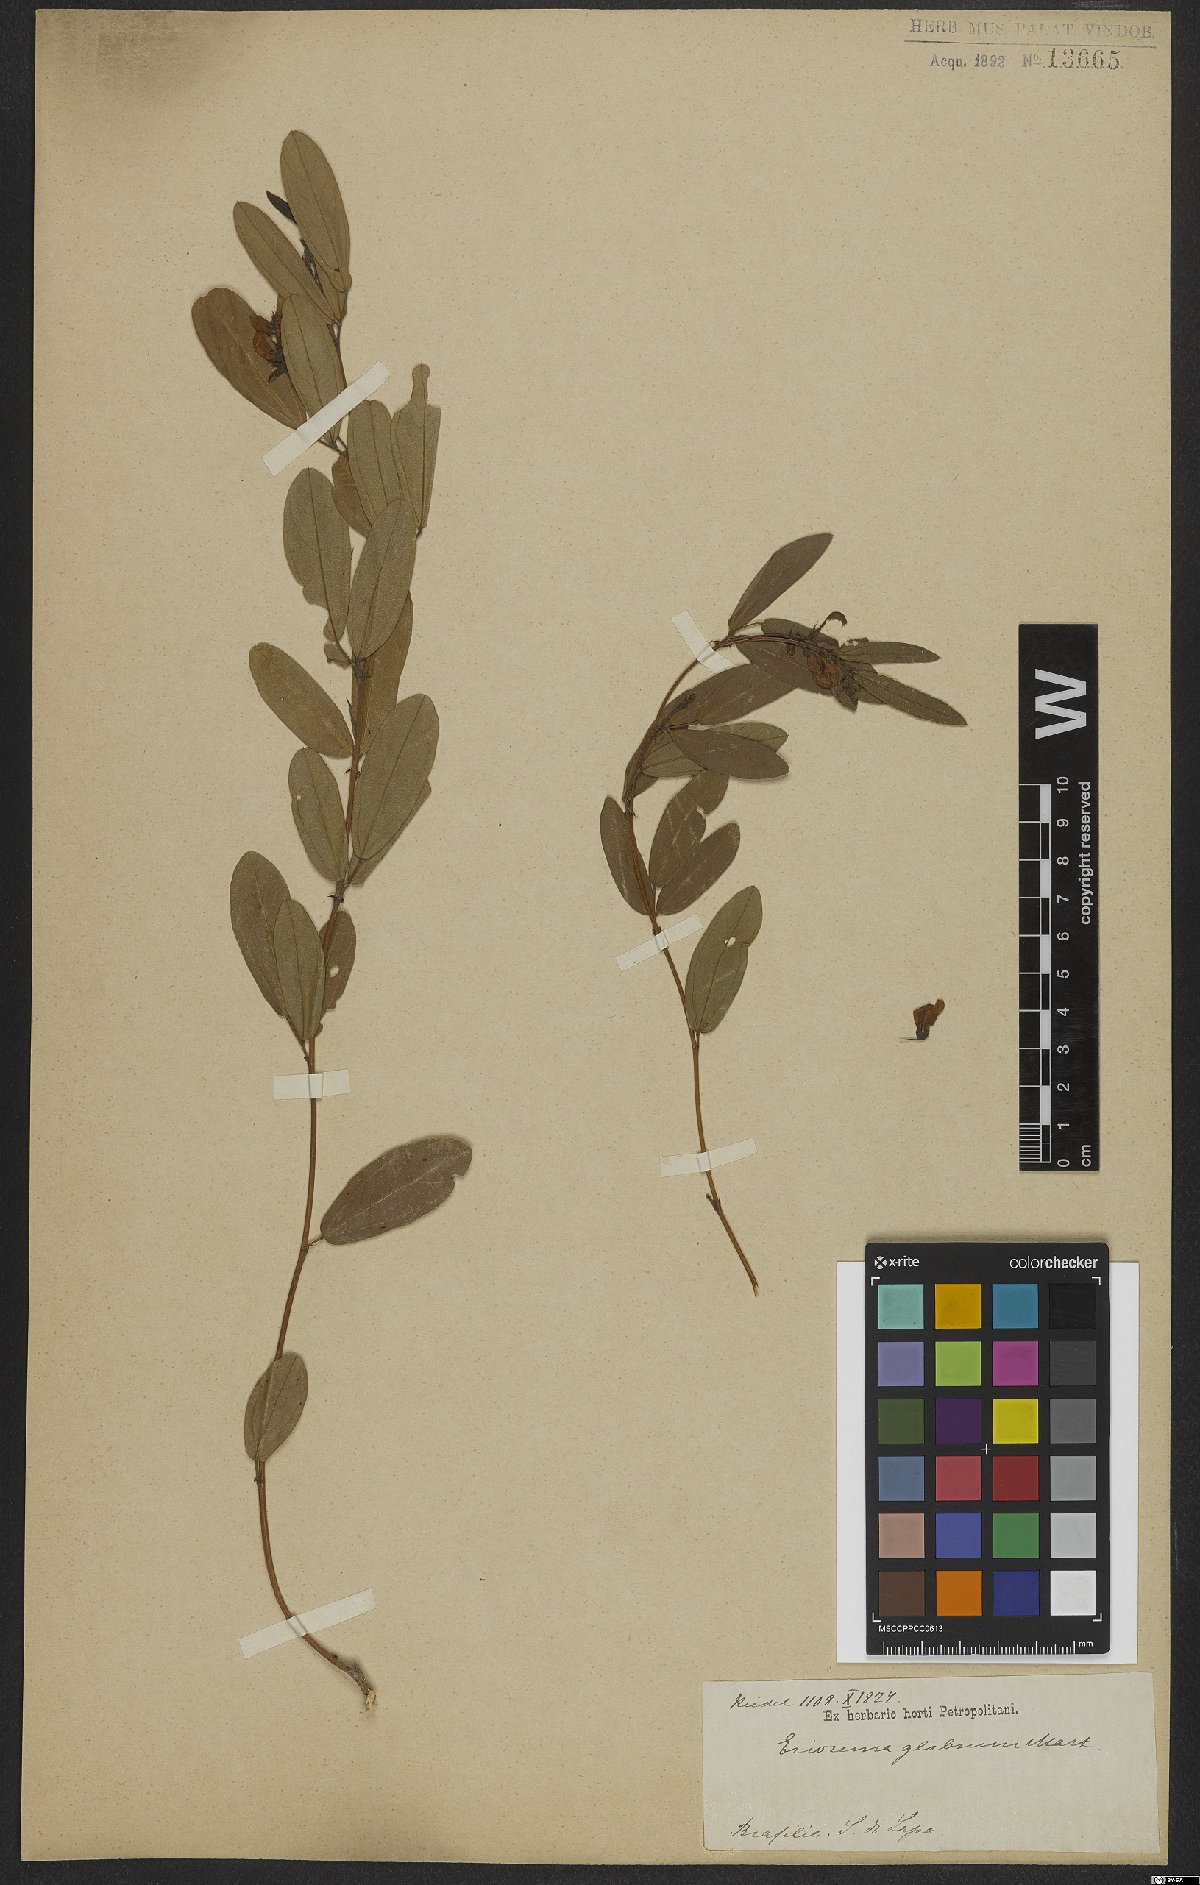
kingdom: Plantae
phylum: Tracheophyta
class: Magnoliopsida
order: Fabales
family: Fabaceae
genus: Eriosema
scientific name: Eriosema glabrum
